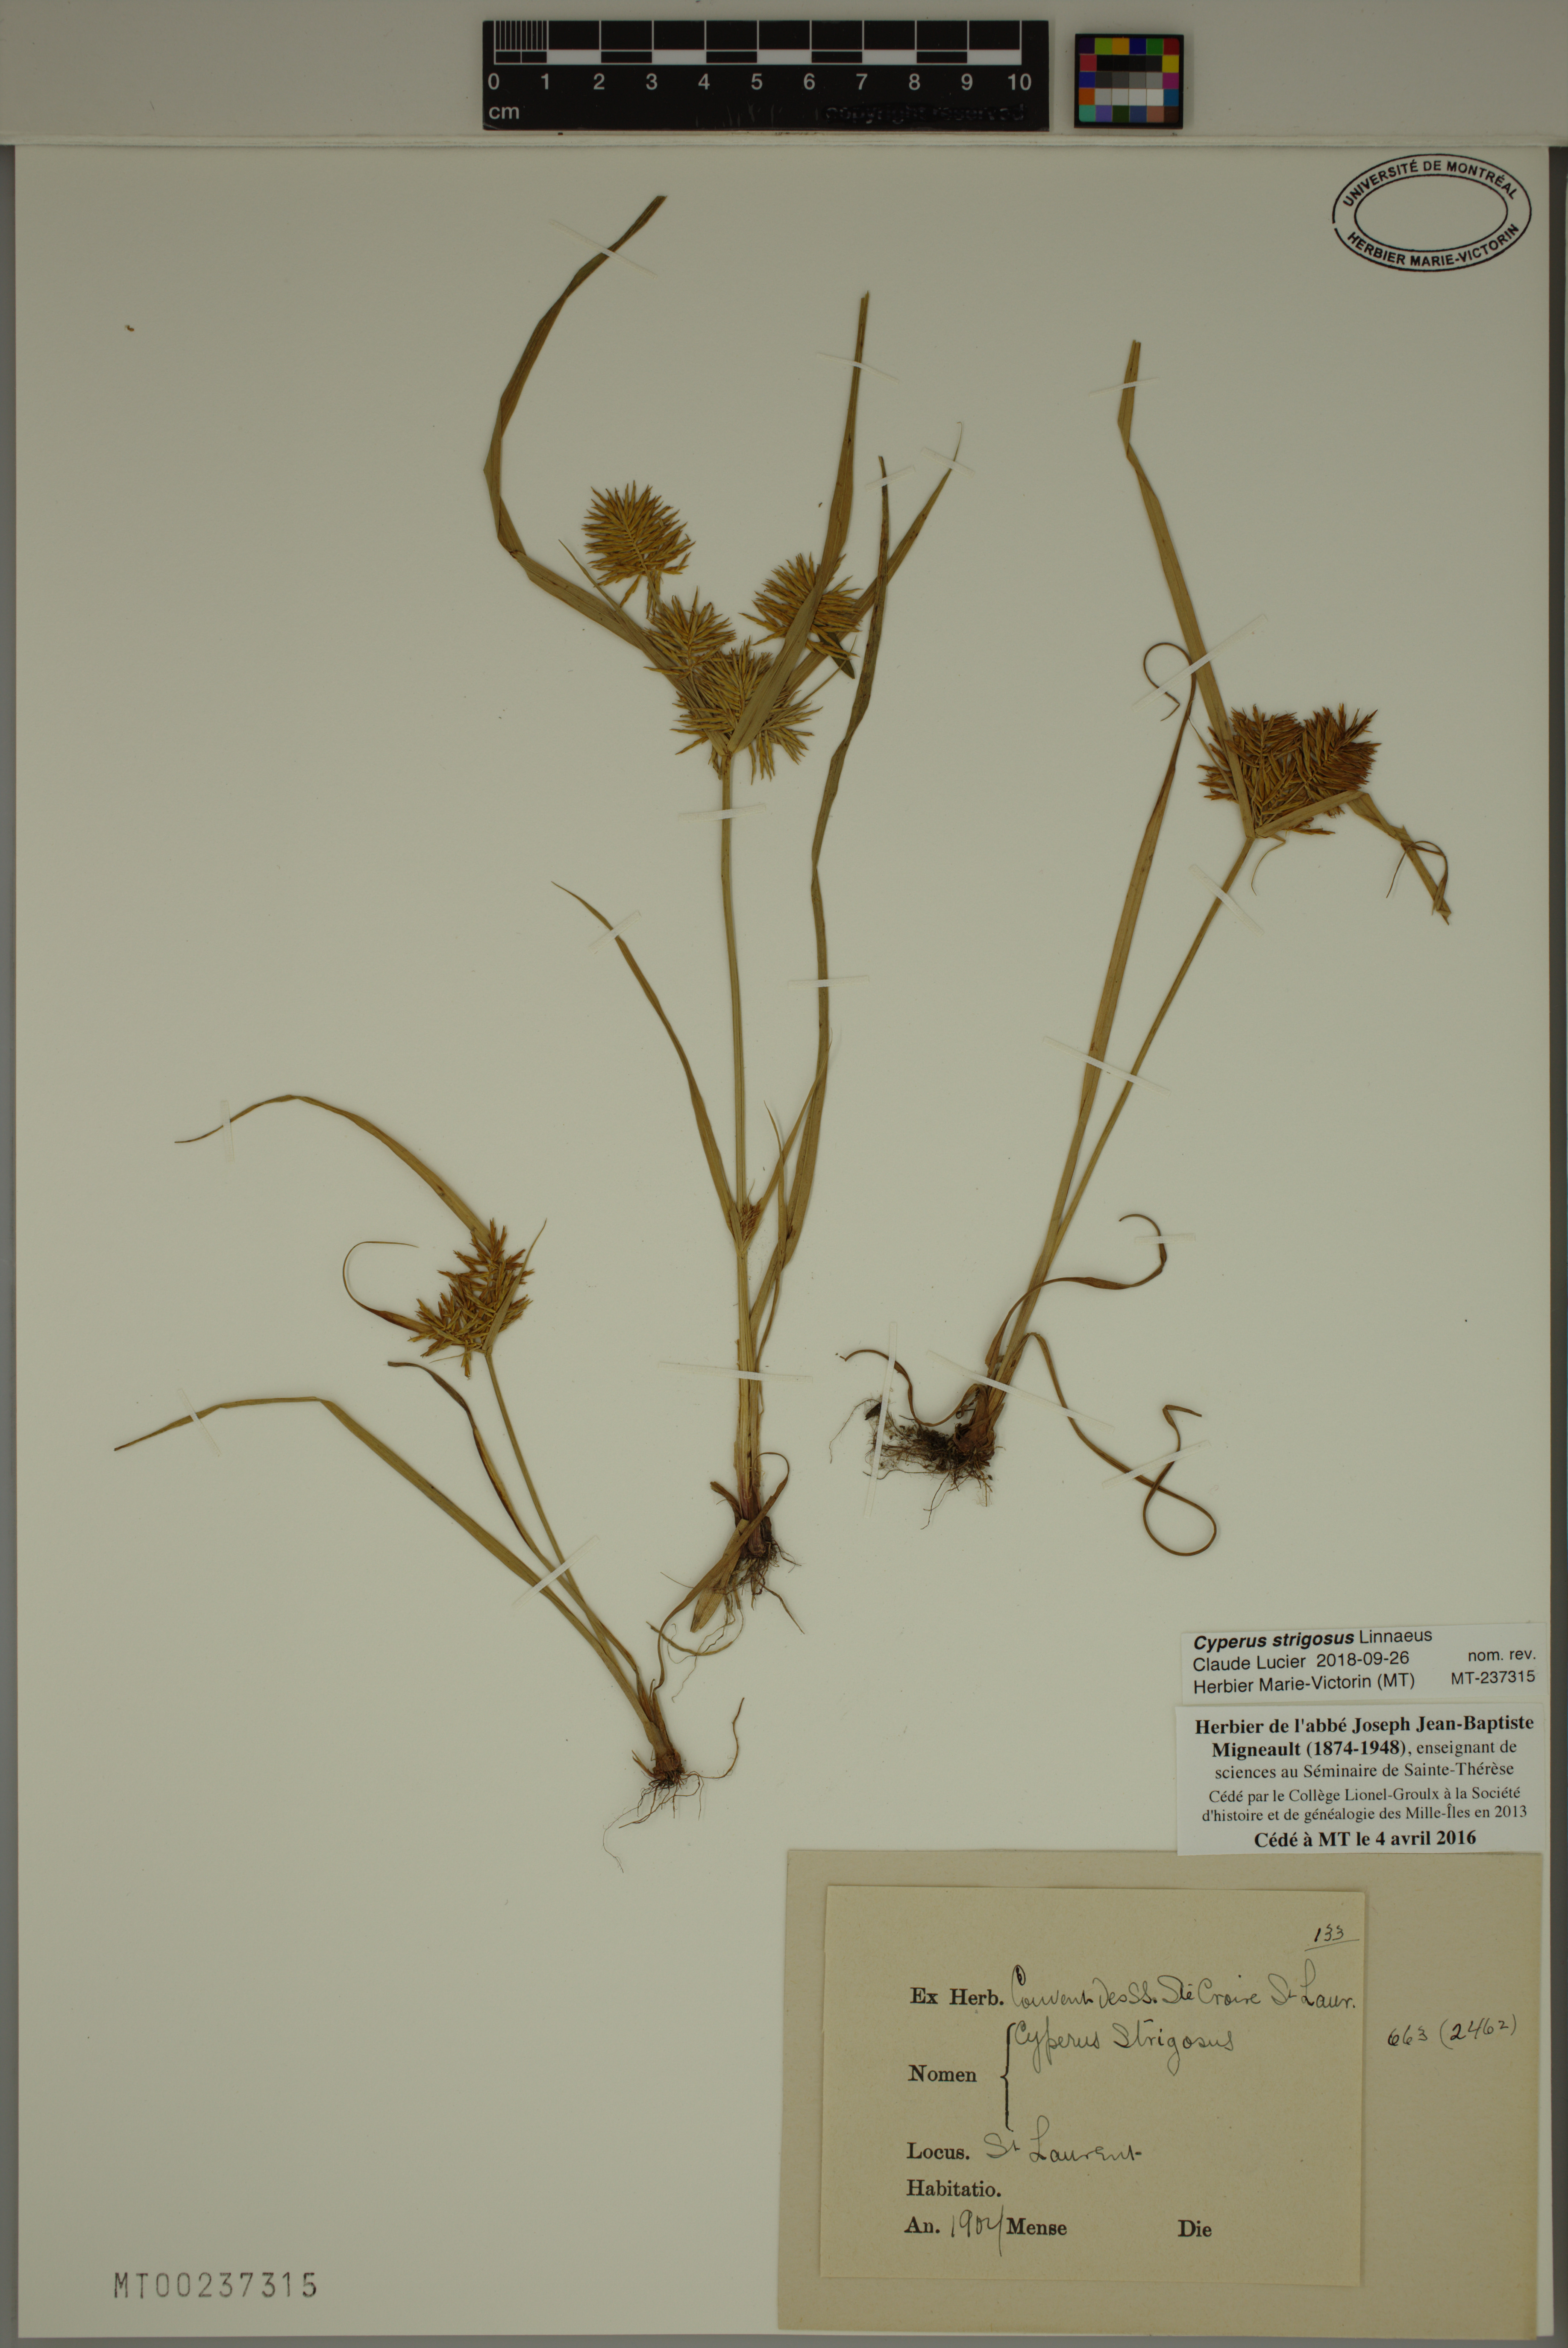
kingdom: Plantae
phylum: Tracheophyta
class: Liliopsida
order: Poales
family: Cyperaceae
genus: Cyperus
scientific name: Cyperus strigosus
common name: False nutsedge
